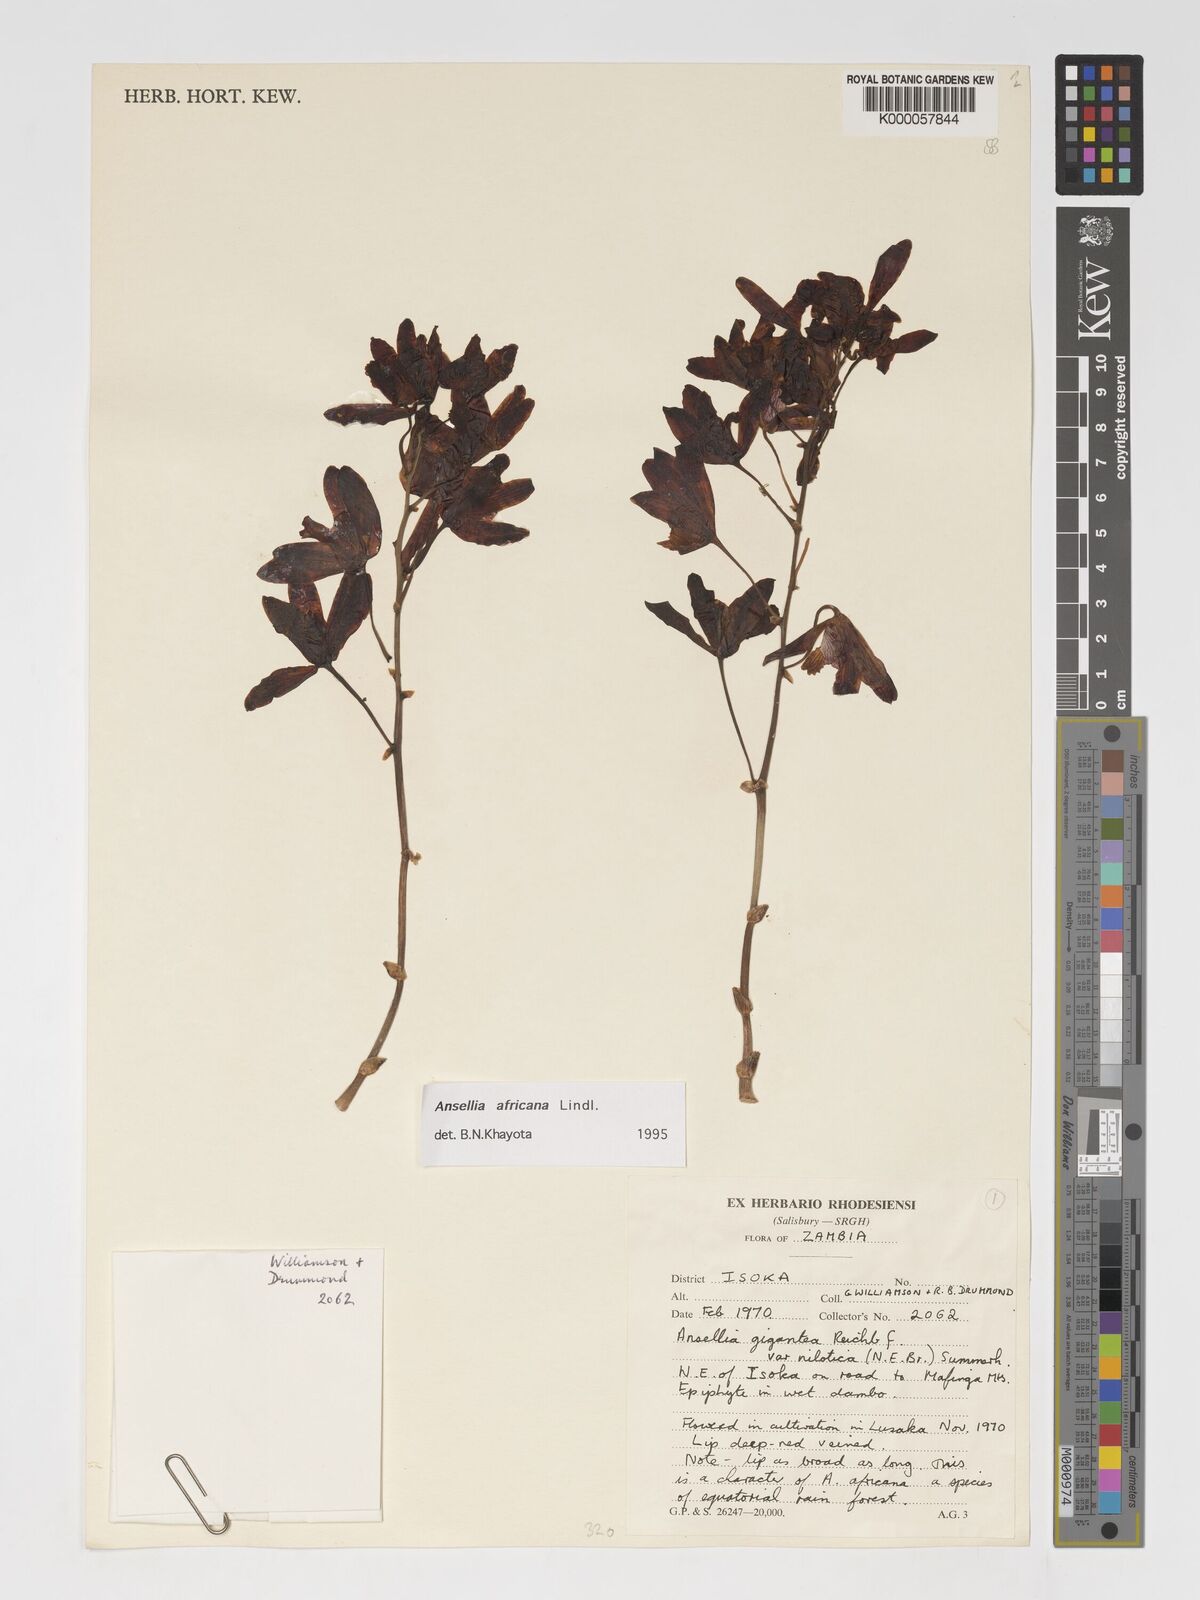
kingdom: Plantae
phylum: Tracheophyta
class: Liliopsida
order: Asparagales
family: Orchidaceae
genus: Ansellia
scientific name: Ansellia africana
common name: African ansellia
